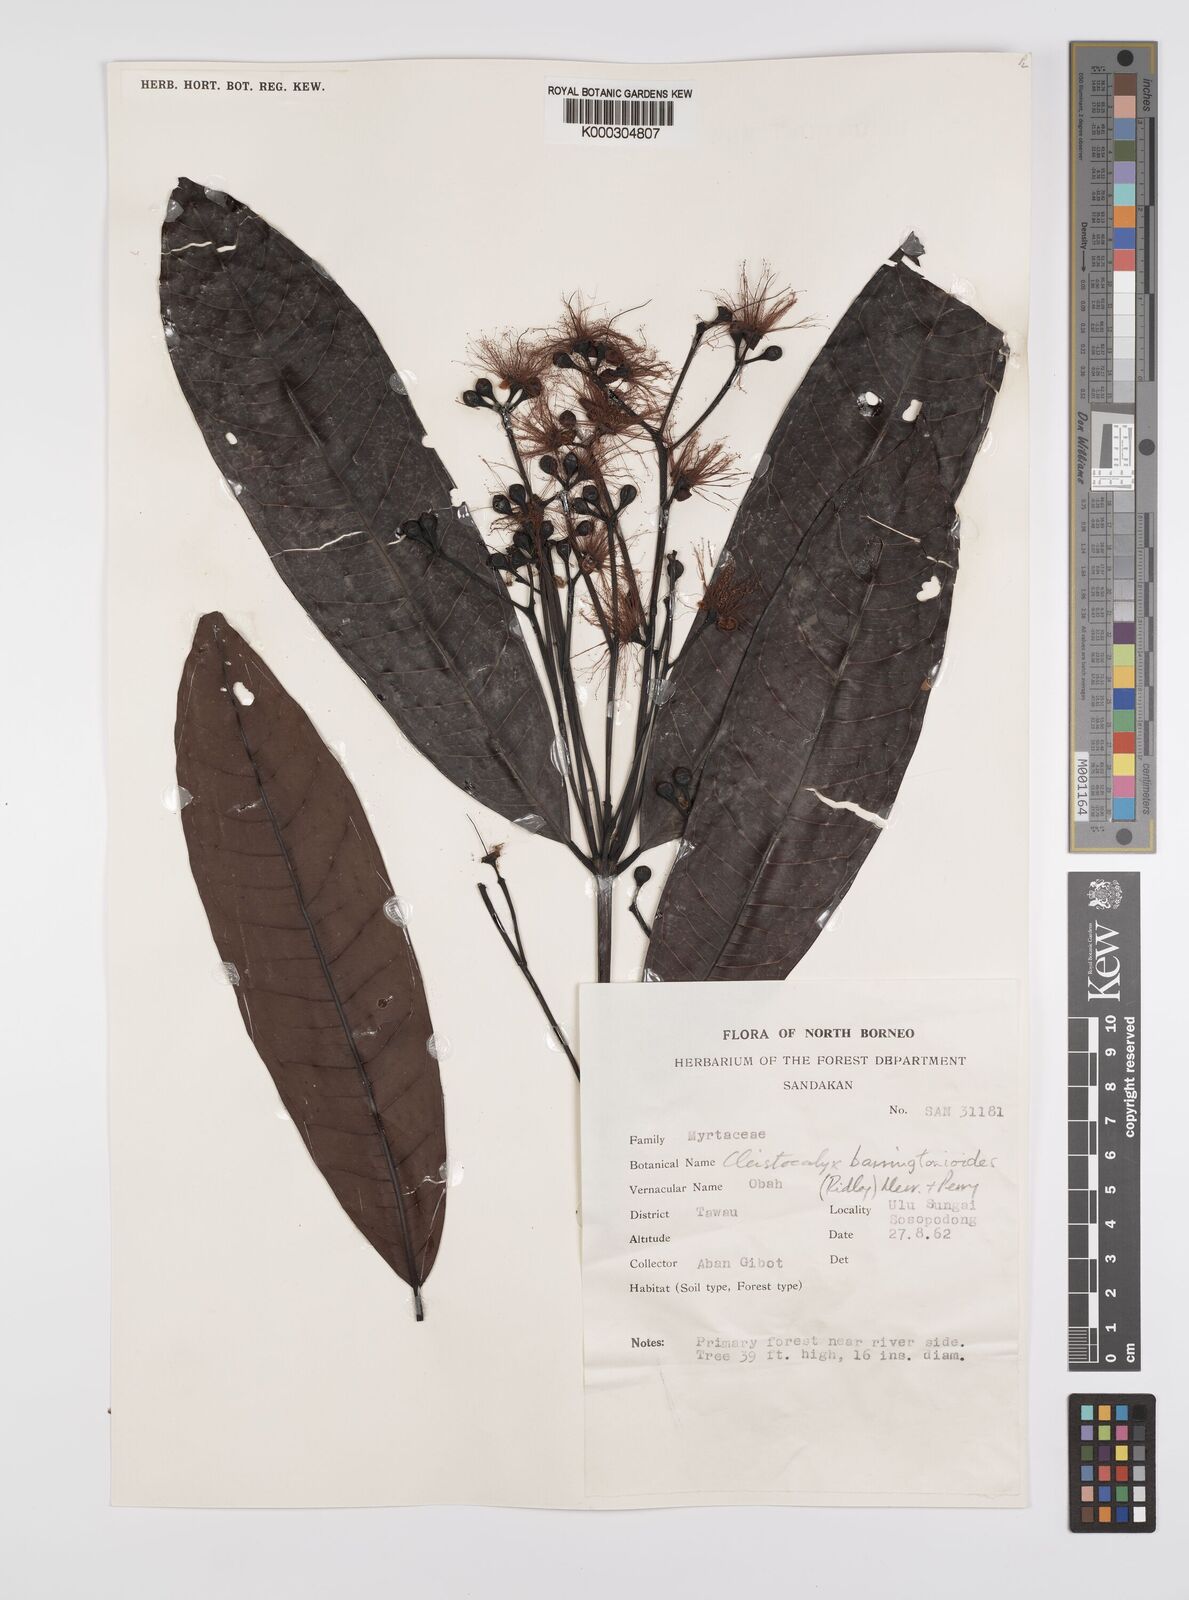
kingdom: Plantae
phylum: Tracheophyta
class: Magnoliopsida
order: Myrtales
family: Myrtaceae
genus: Syzygium
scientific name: Syzygium barringtonioides
